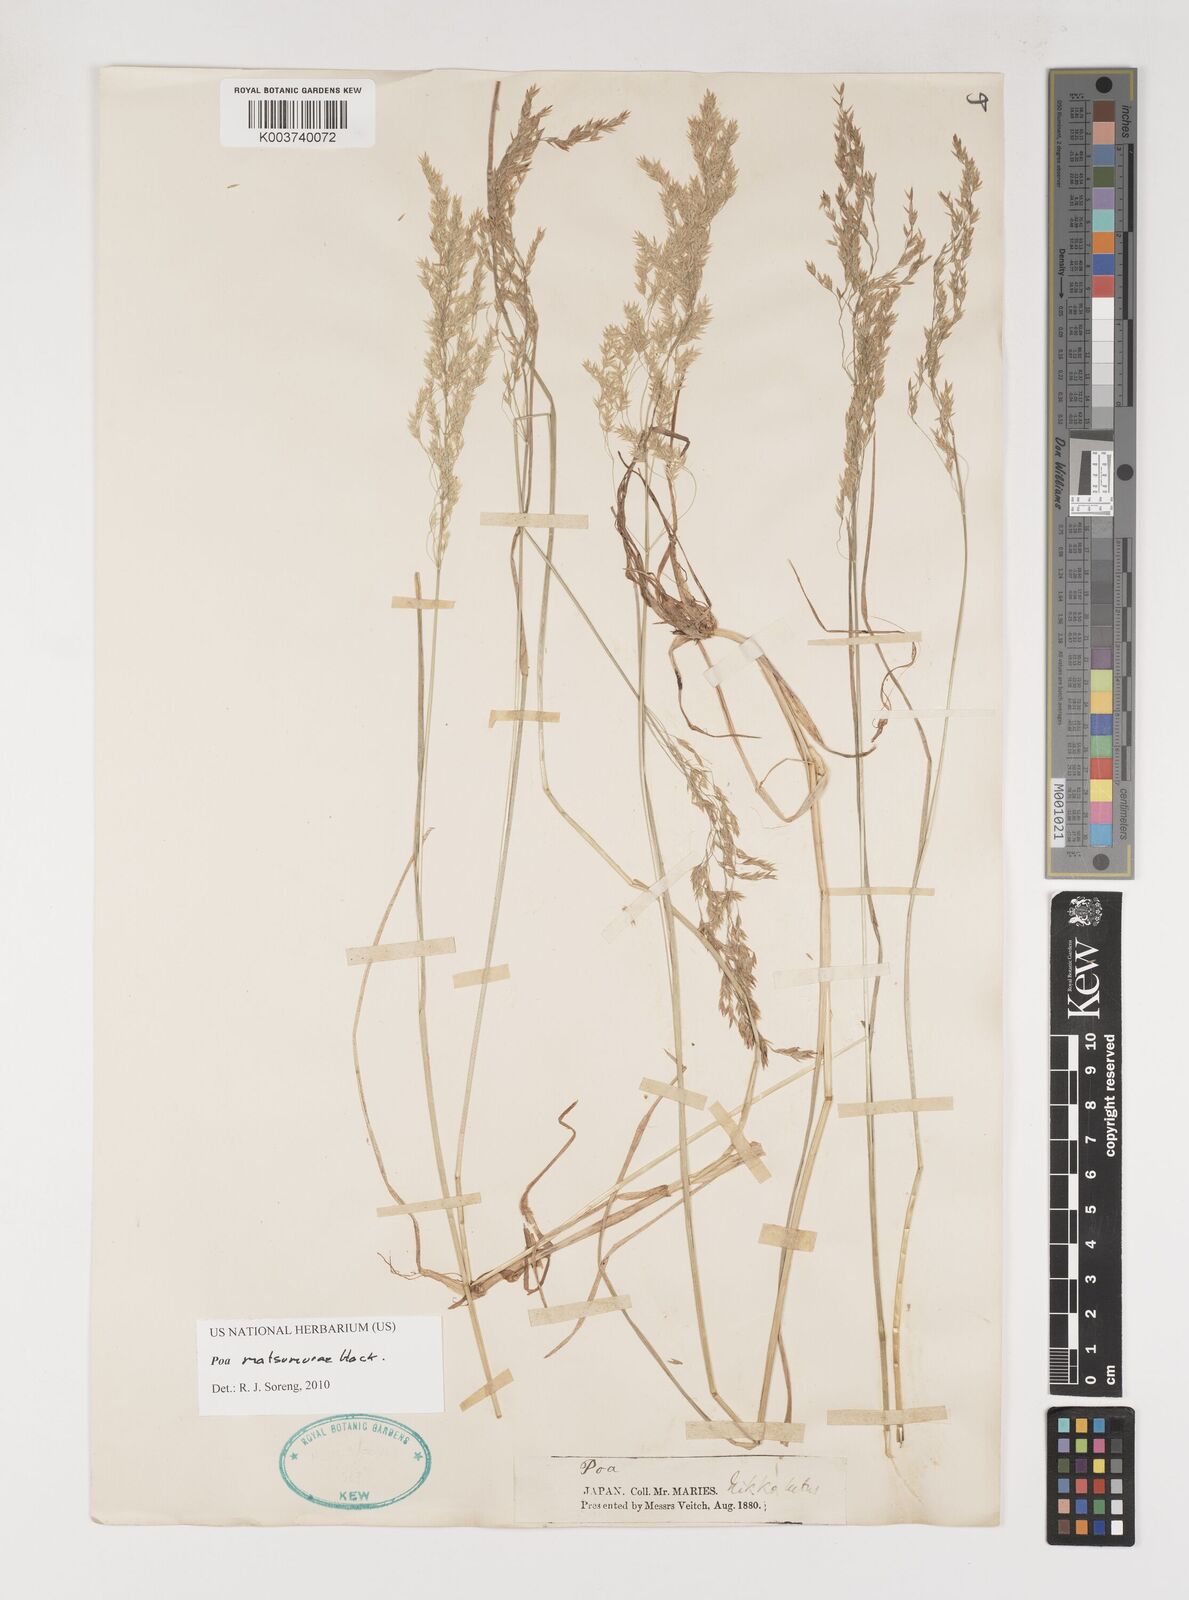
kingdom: Plantae
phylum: Tracheophyta
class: Liliopsida
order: Poales
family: Poaceae
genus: Poa
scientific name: Poa matsumurae
